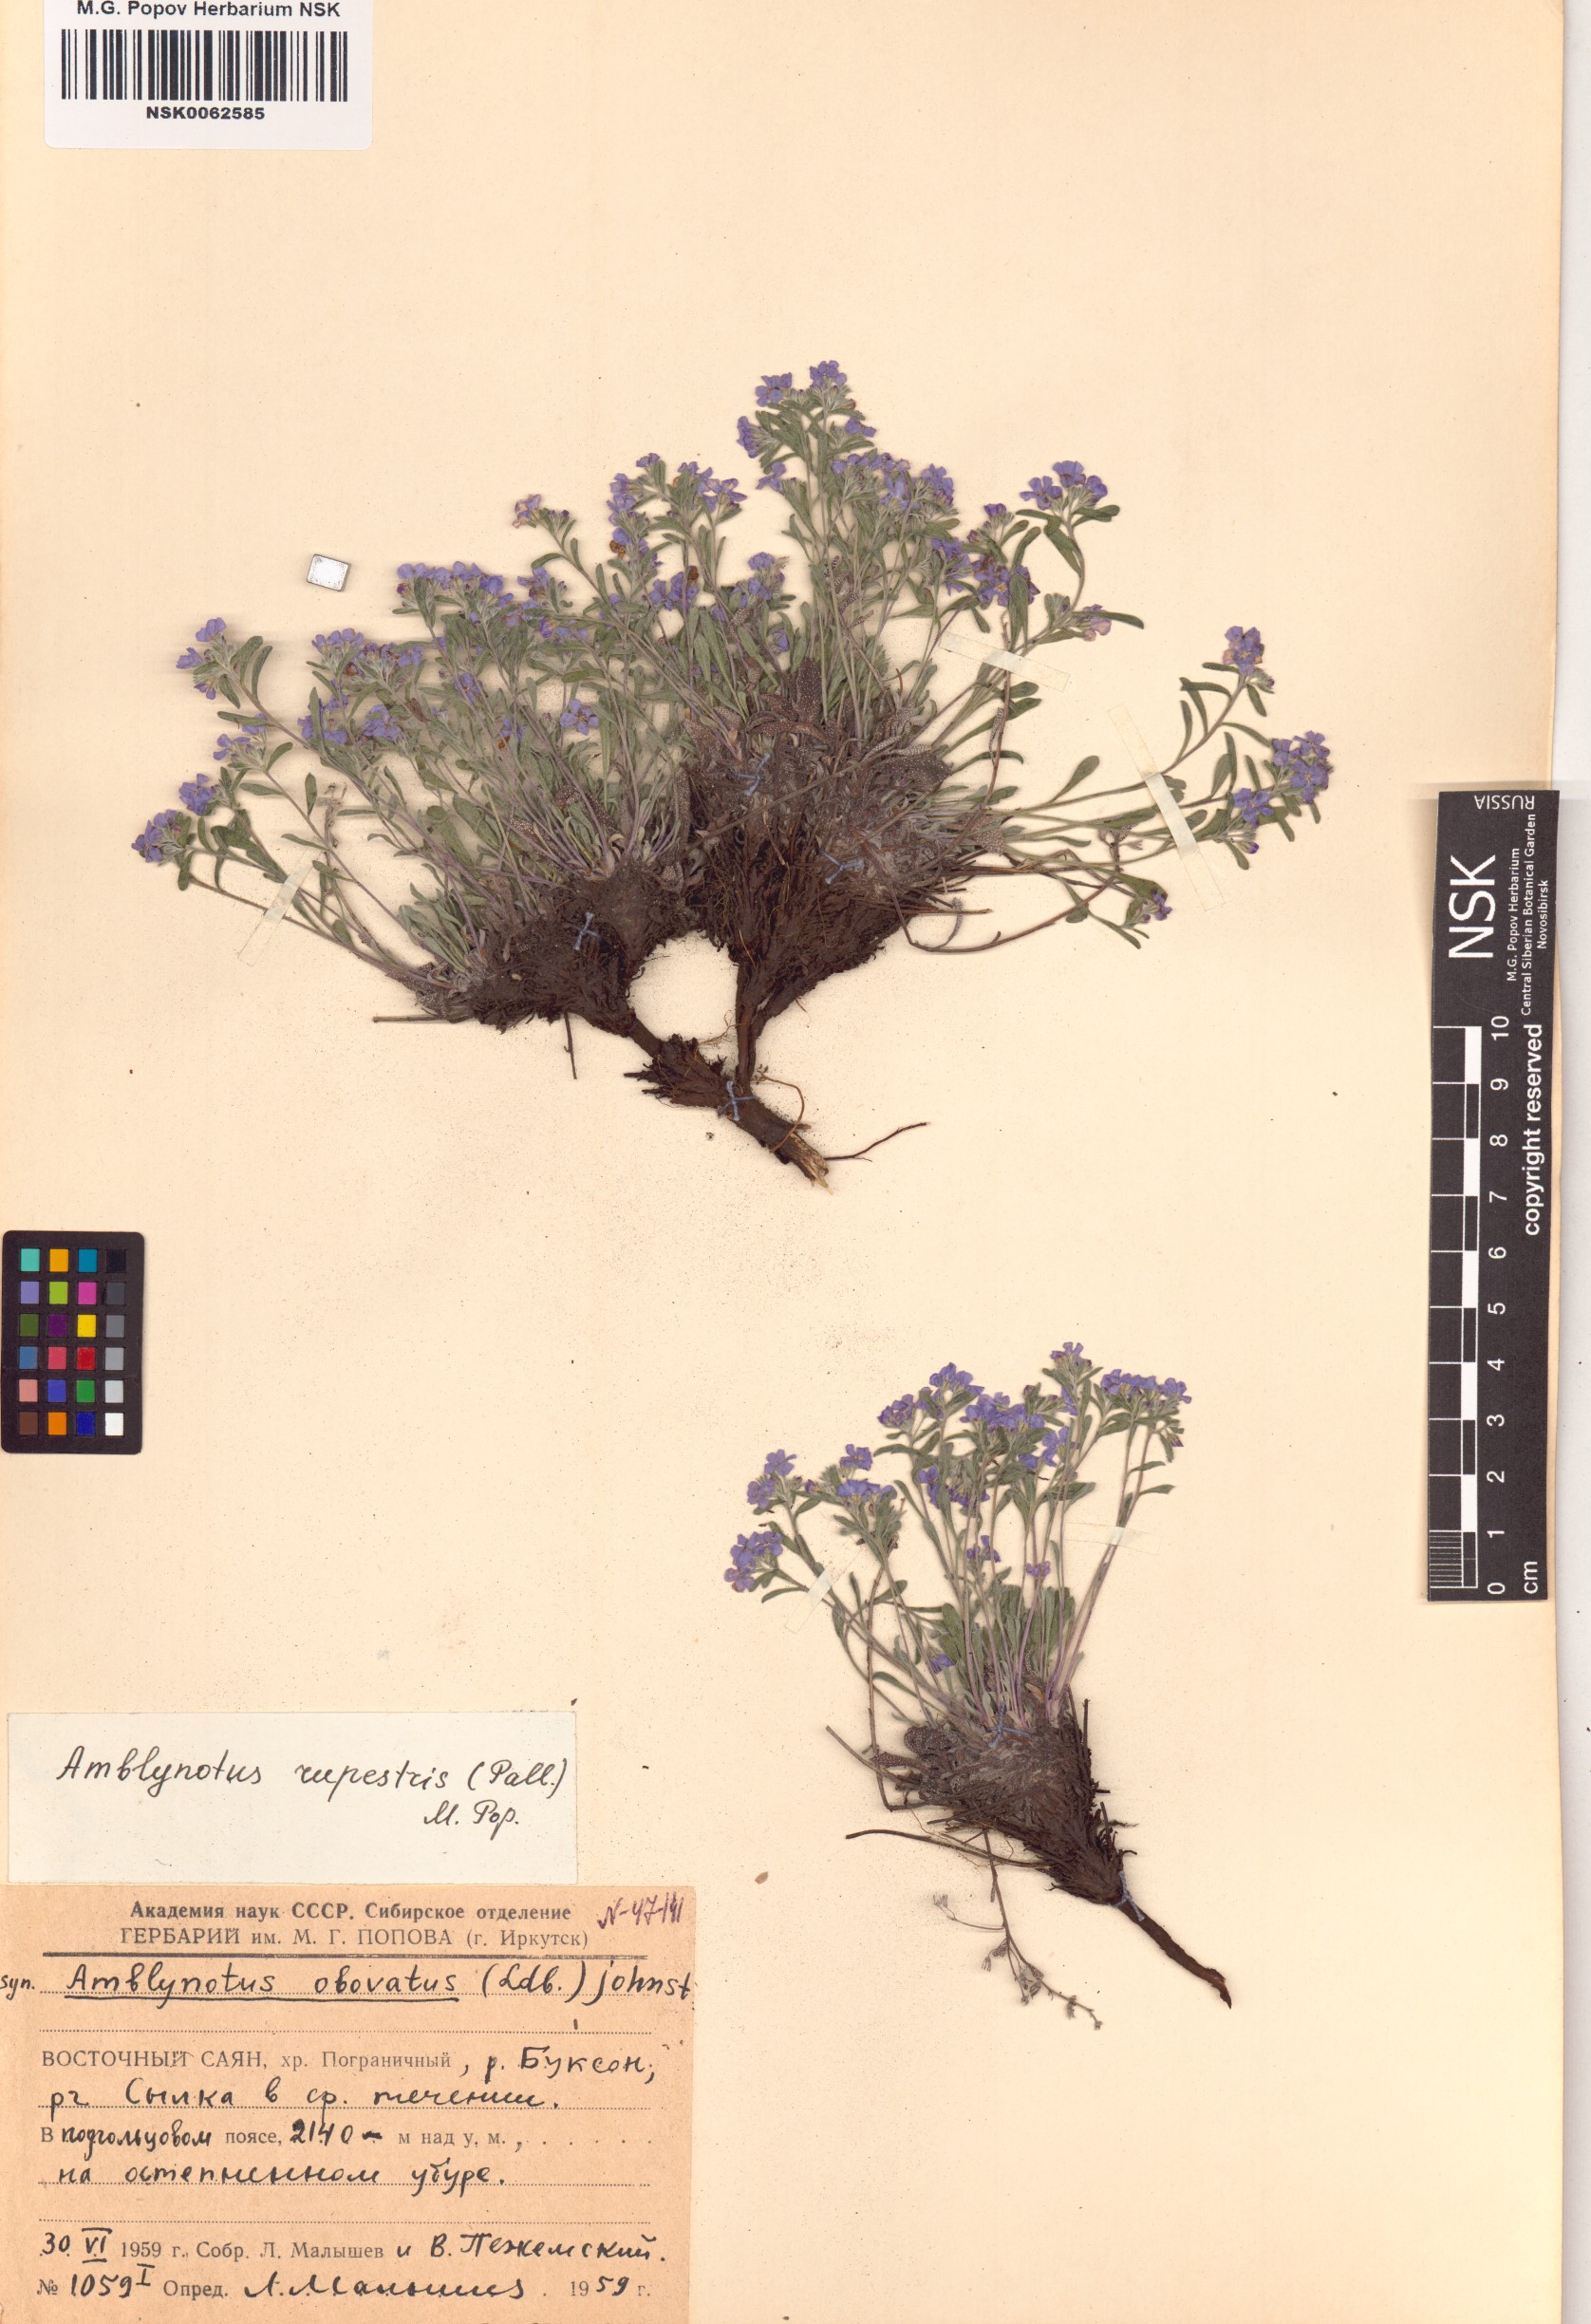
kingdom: Plantae
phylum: Tracheophyta
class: Magnoliopsida
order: Boraginales
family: Boraginaceae
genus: Eritrichium
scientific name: Eritrichium rupestre
